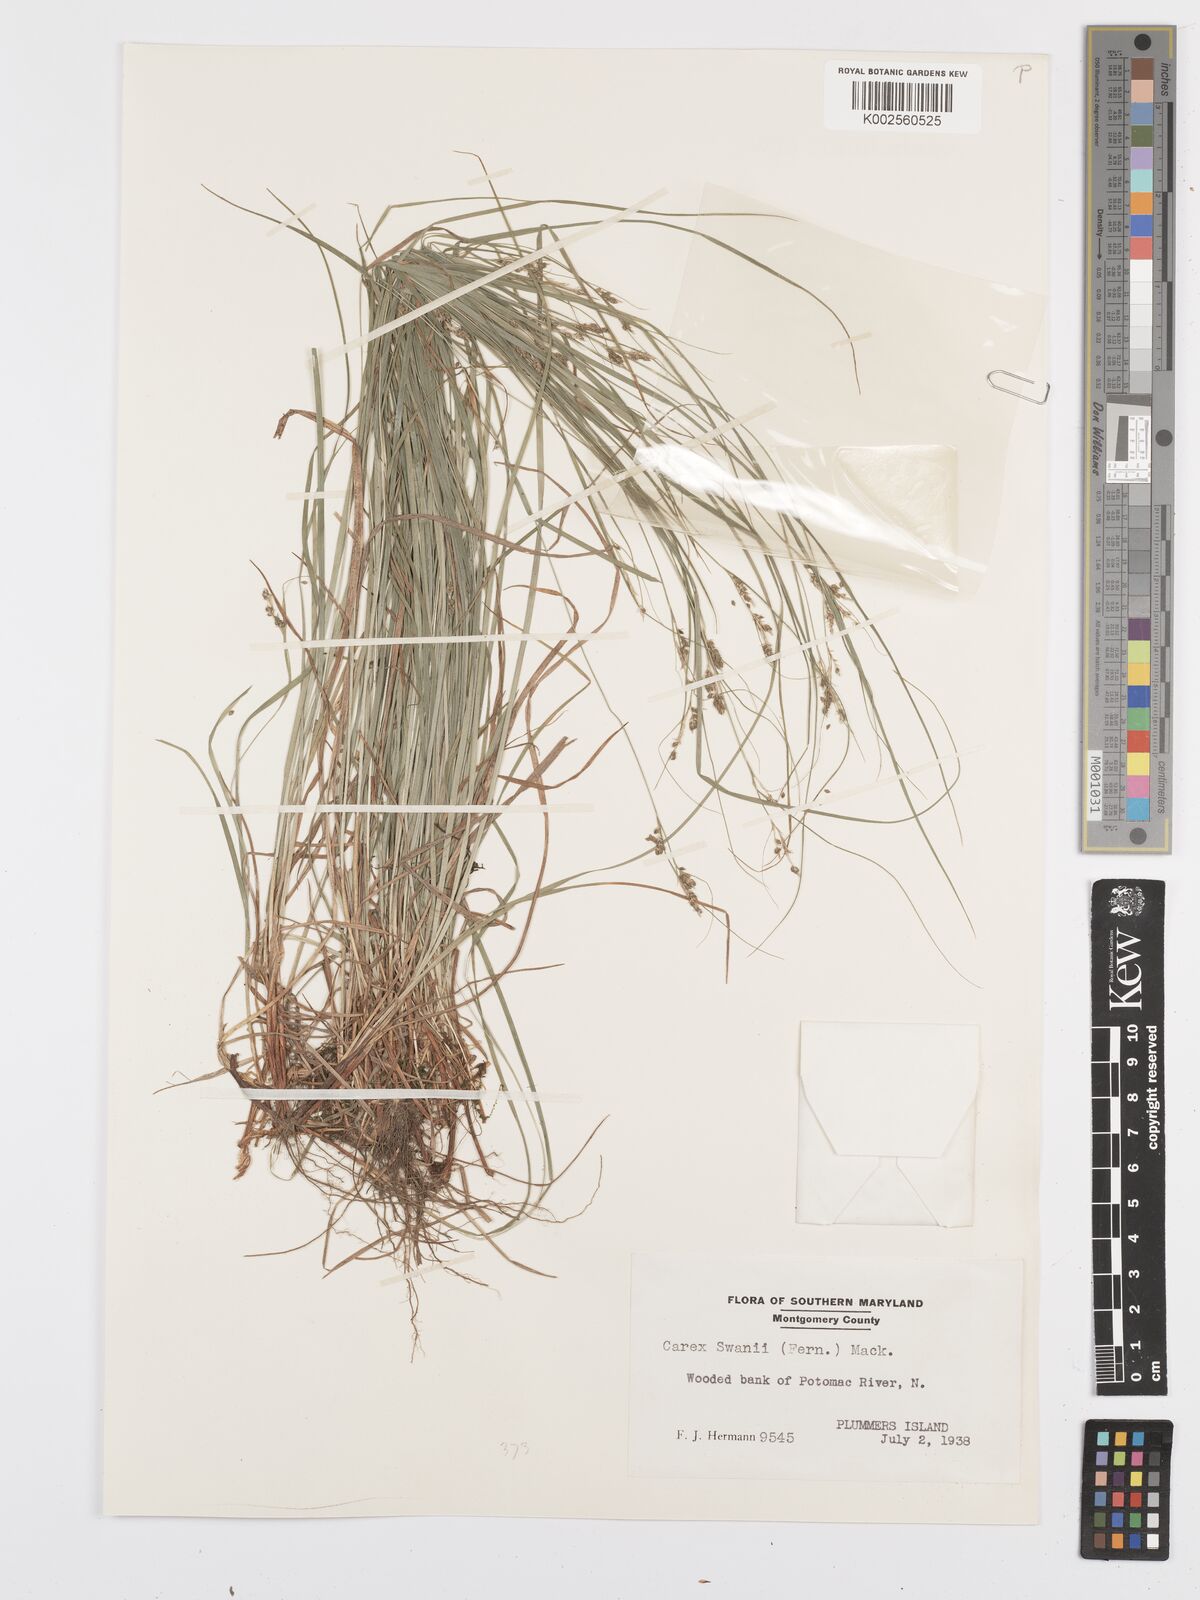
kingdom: Plantae
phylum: Tracheophyta
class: Liliopsida
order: Poales
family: Cyperaceae
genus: Carex
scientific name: Carex swanii
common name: Downy green sedge
